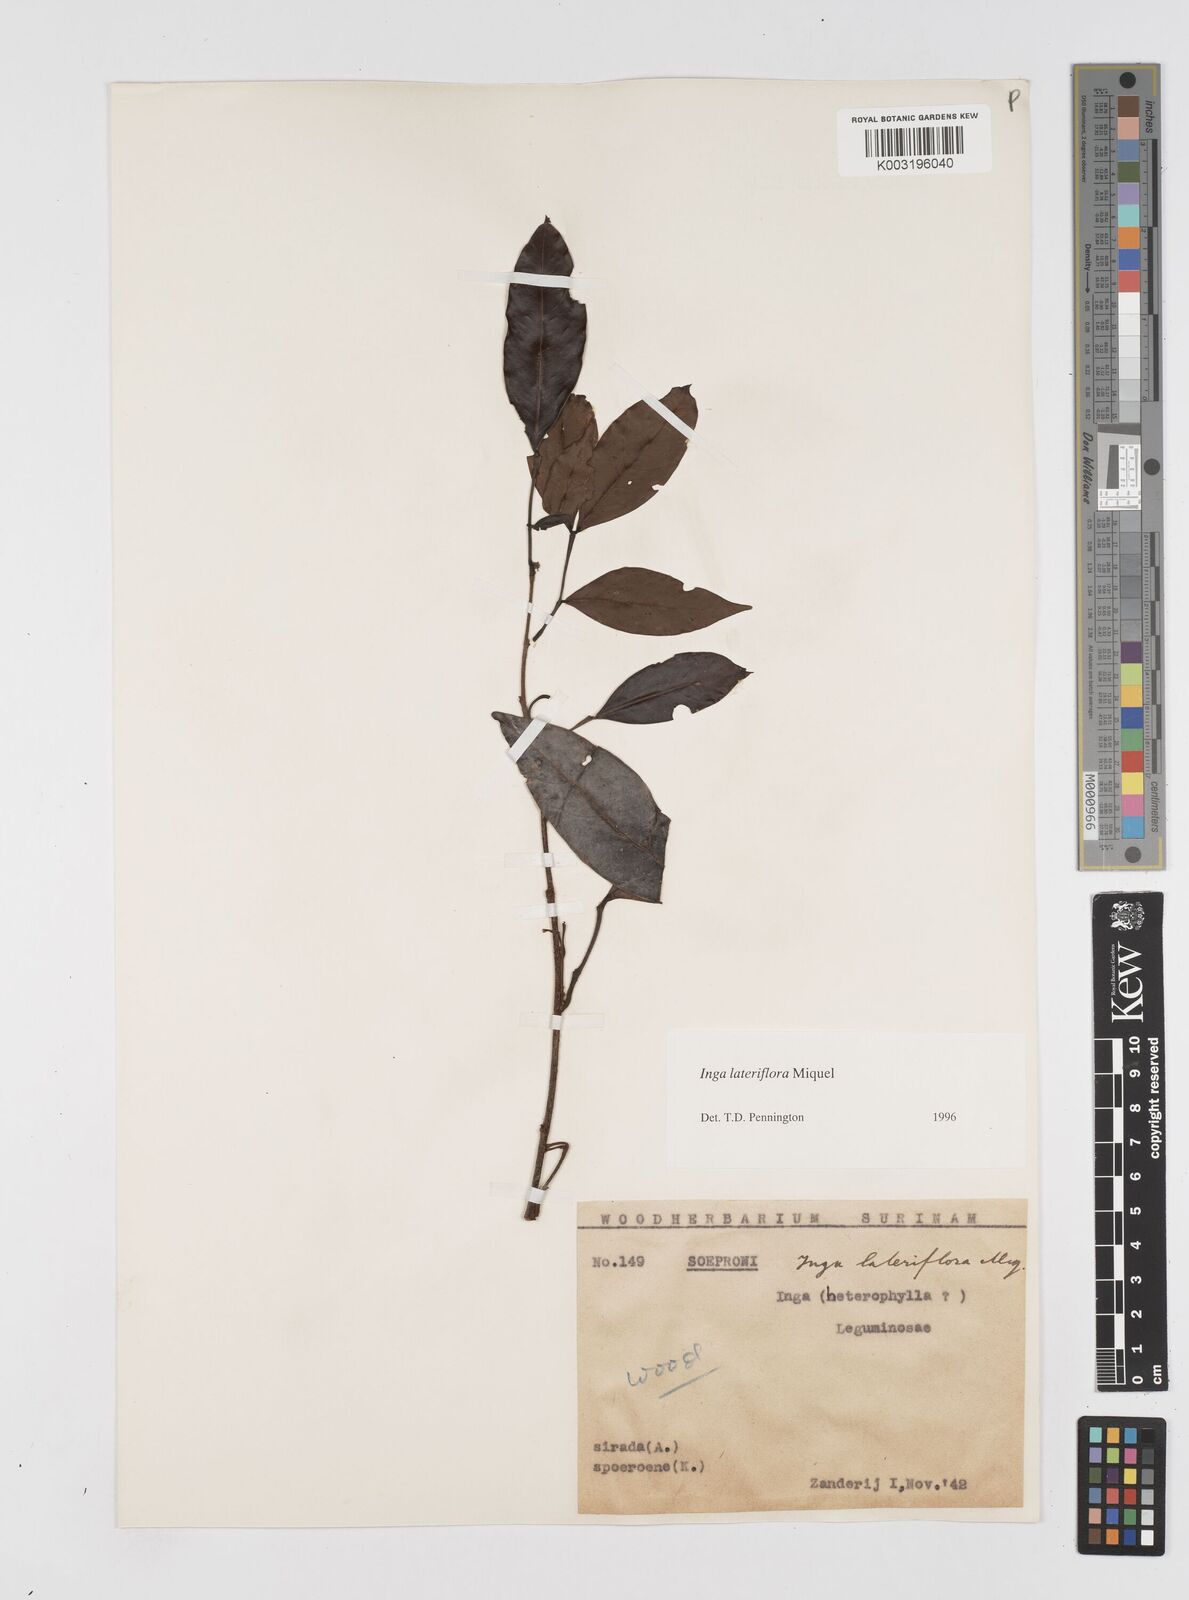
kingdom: Plantae
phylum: Tracheophyta
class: Magnoliopsida
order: Fabales
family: Fabaceae
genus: Inga
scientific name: Inga lateriflora
